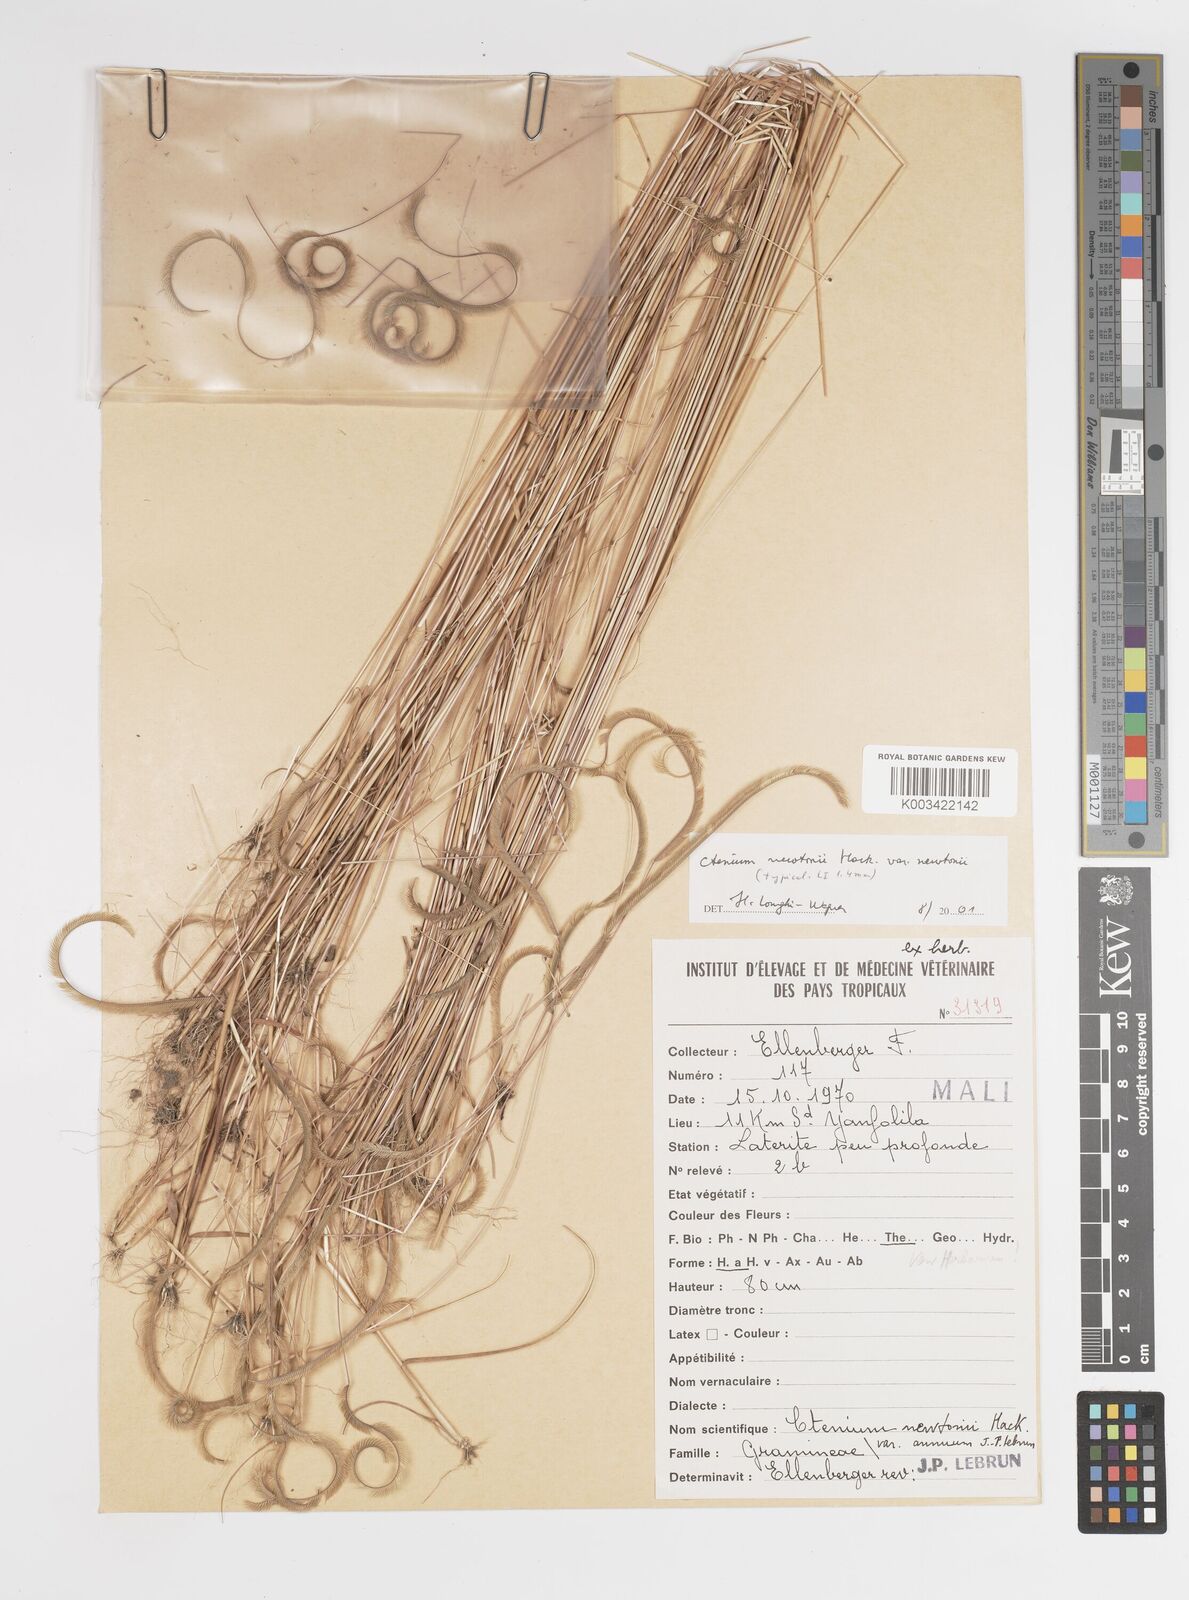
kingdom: Plantae
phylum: Tracheophyta
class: Liliopsida
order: Poales
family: Poaceae
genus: Ctenium
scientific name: Ctenium newtonii
